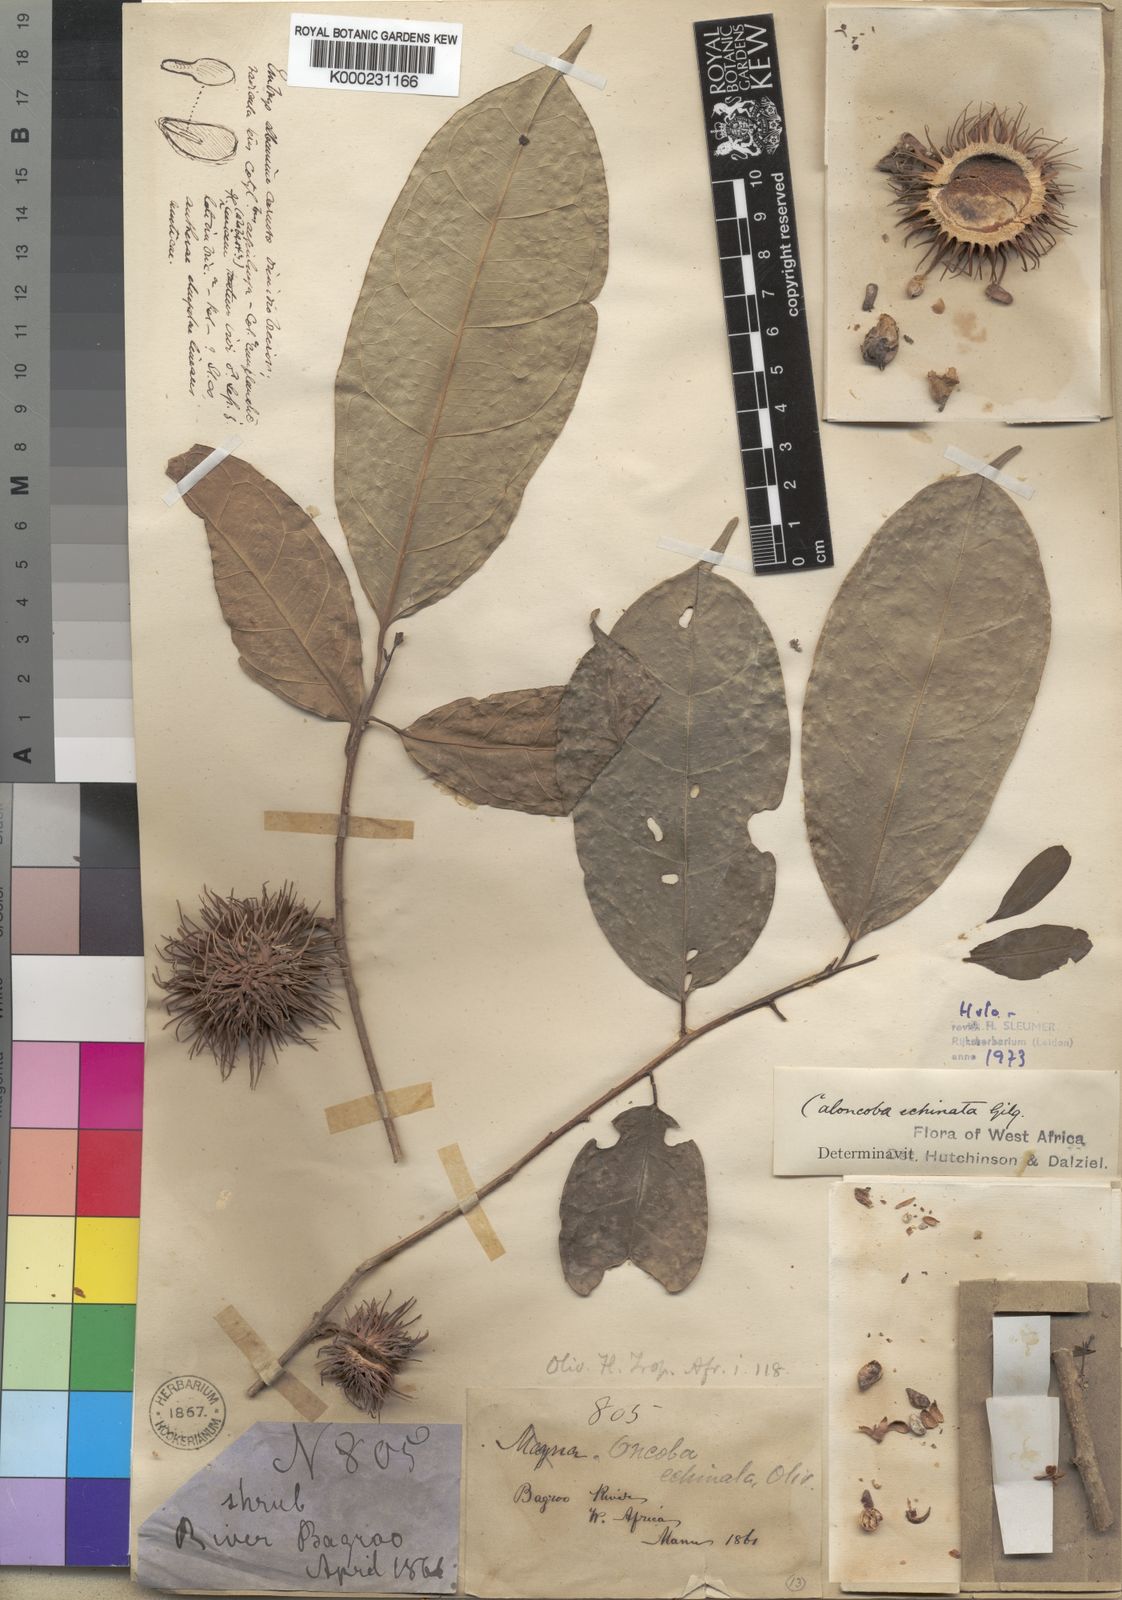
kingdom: Plantae
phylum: Tracheophyta
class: Magnoliopsida
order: Malpighiales
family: Achariaceae
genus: Caloncoba
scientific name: Caloncoba echinata
